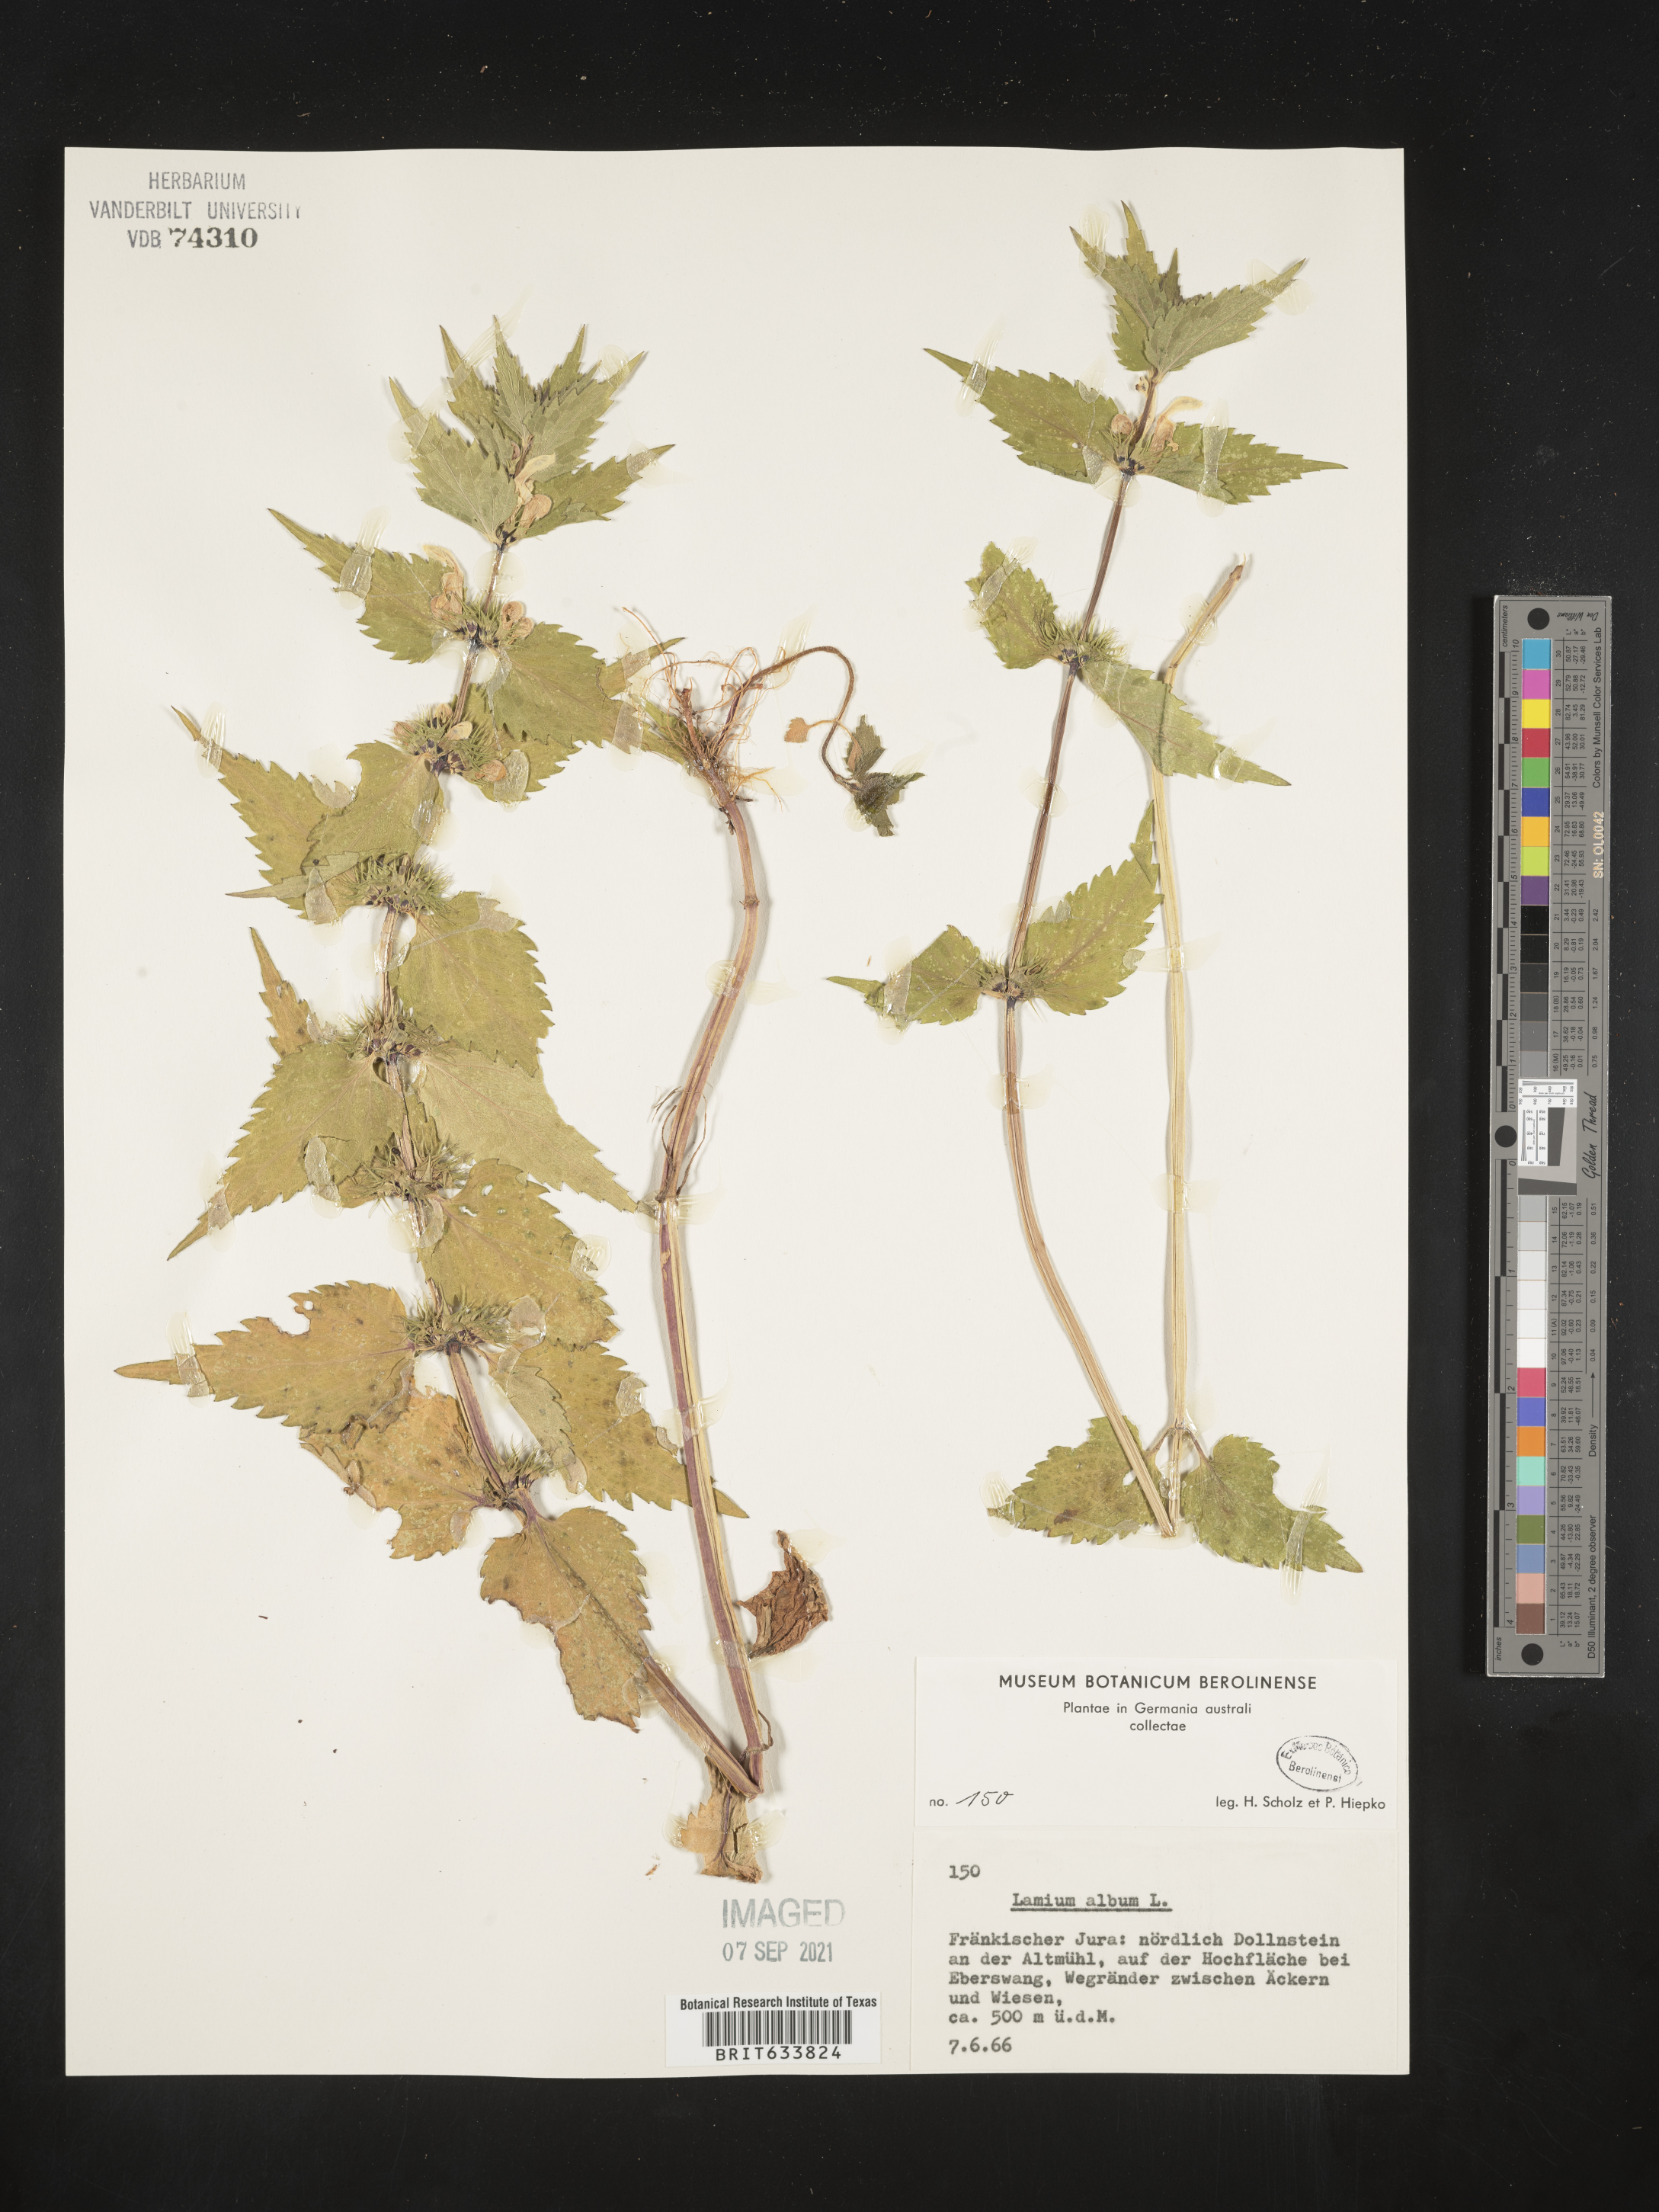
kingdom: Plantae
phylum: Tracheophyta
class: Magnoliopsida
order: Lamiales
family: Lamiaceae
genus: Lamium
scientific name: Lamium
